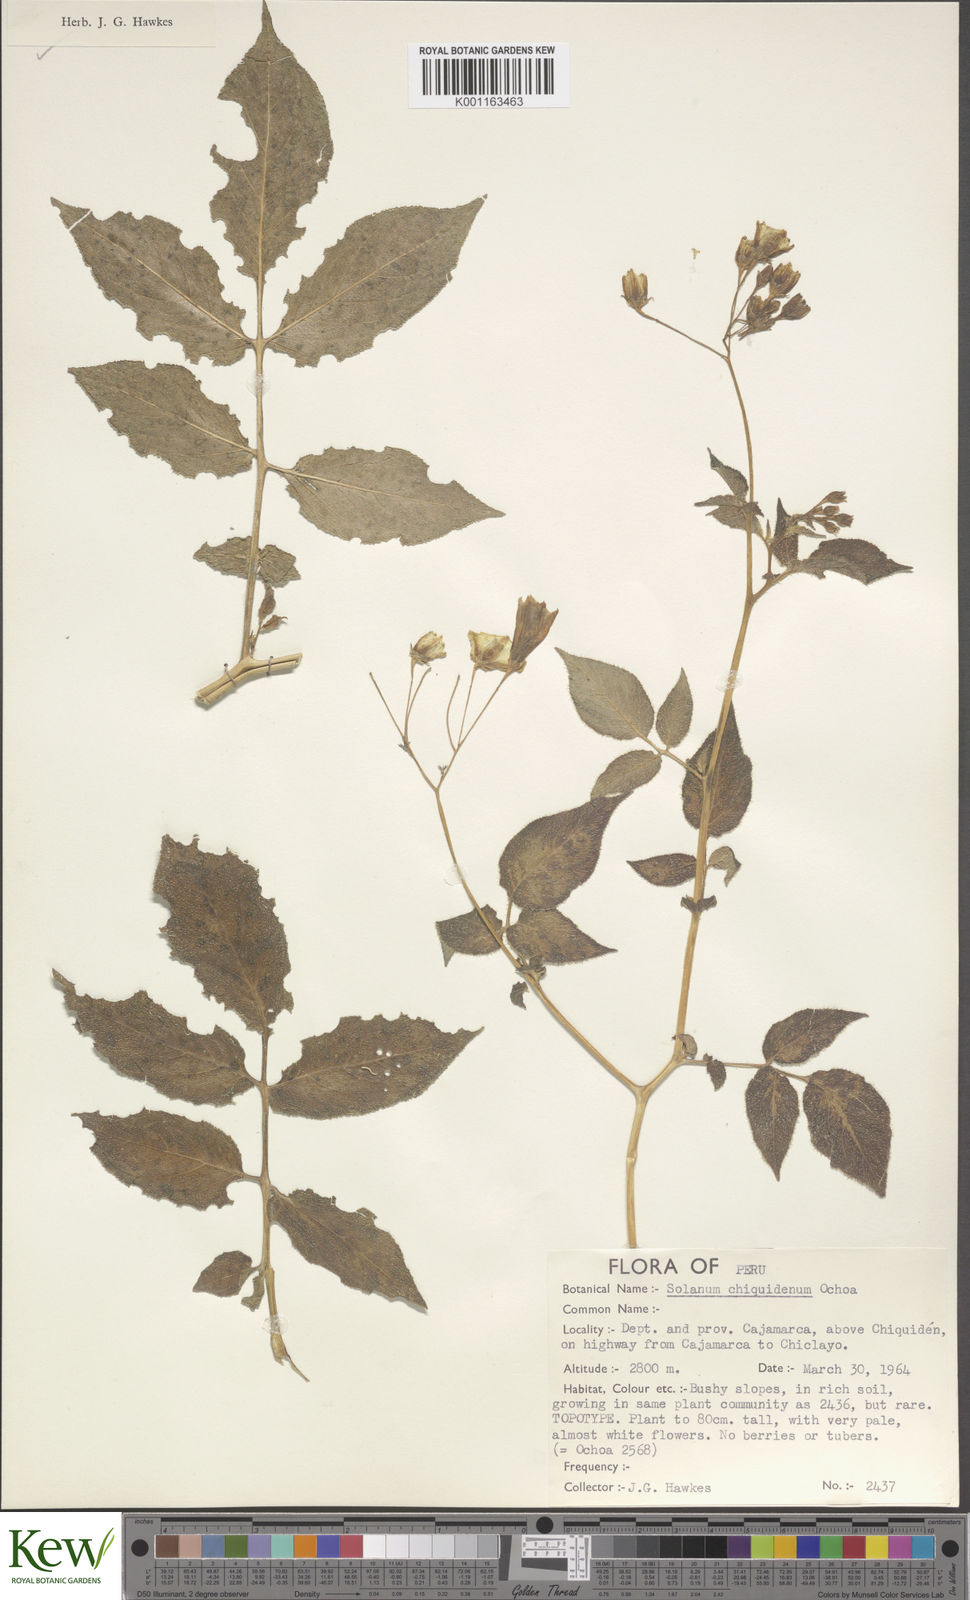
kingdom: Plantae
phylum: Tracheophyta
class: Magnoliopsida
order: Solanales
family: Solanaceae
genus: Solanum
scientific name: Solanum chiquidenum
